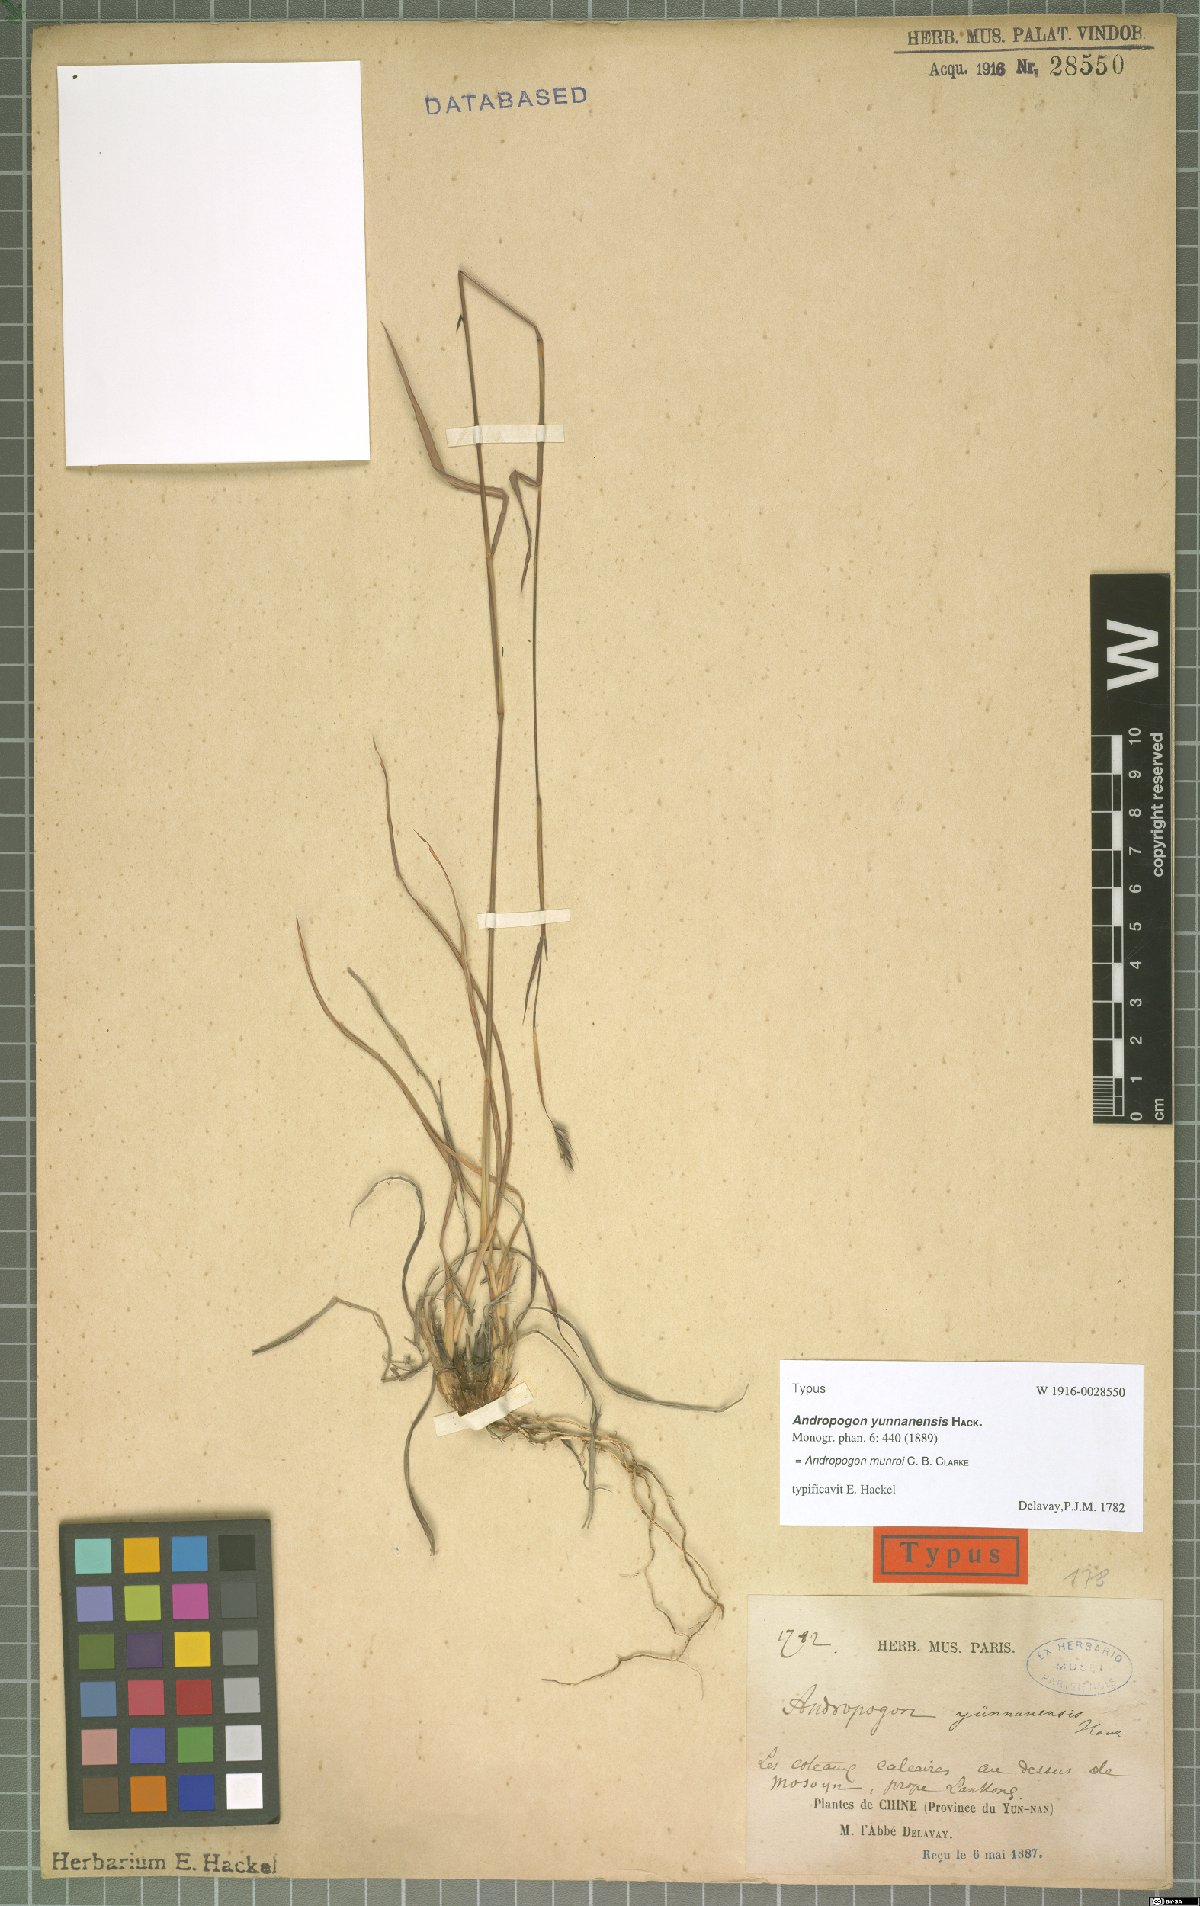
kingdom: Plantae
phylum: Tracheophyta
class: Liliopsida
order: Poales
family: Poaceae
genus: Andropogon
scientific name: Andropogon munroi
